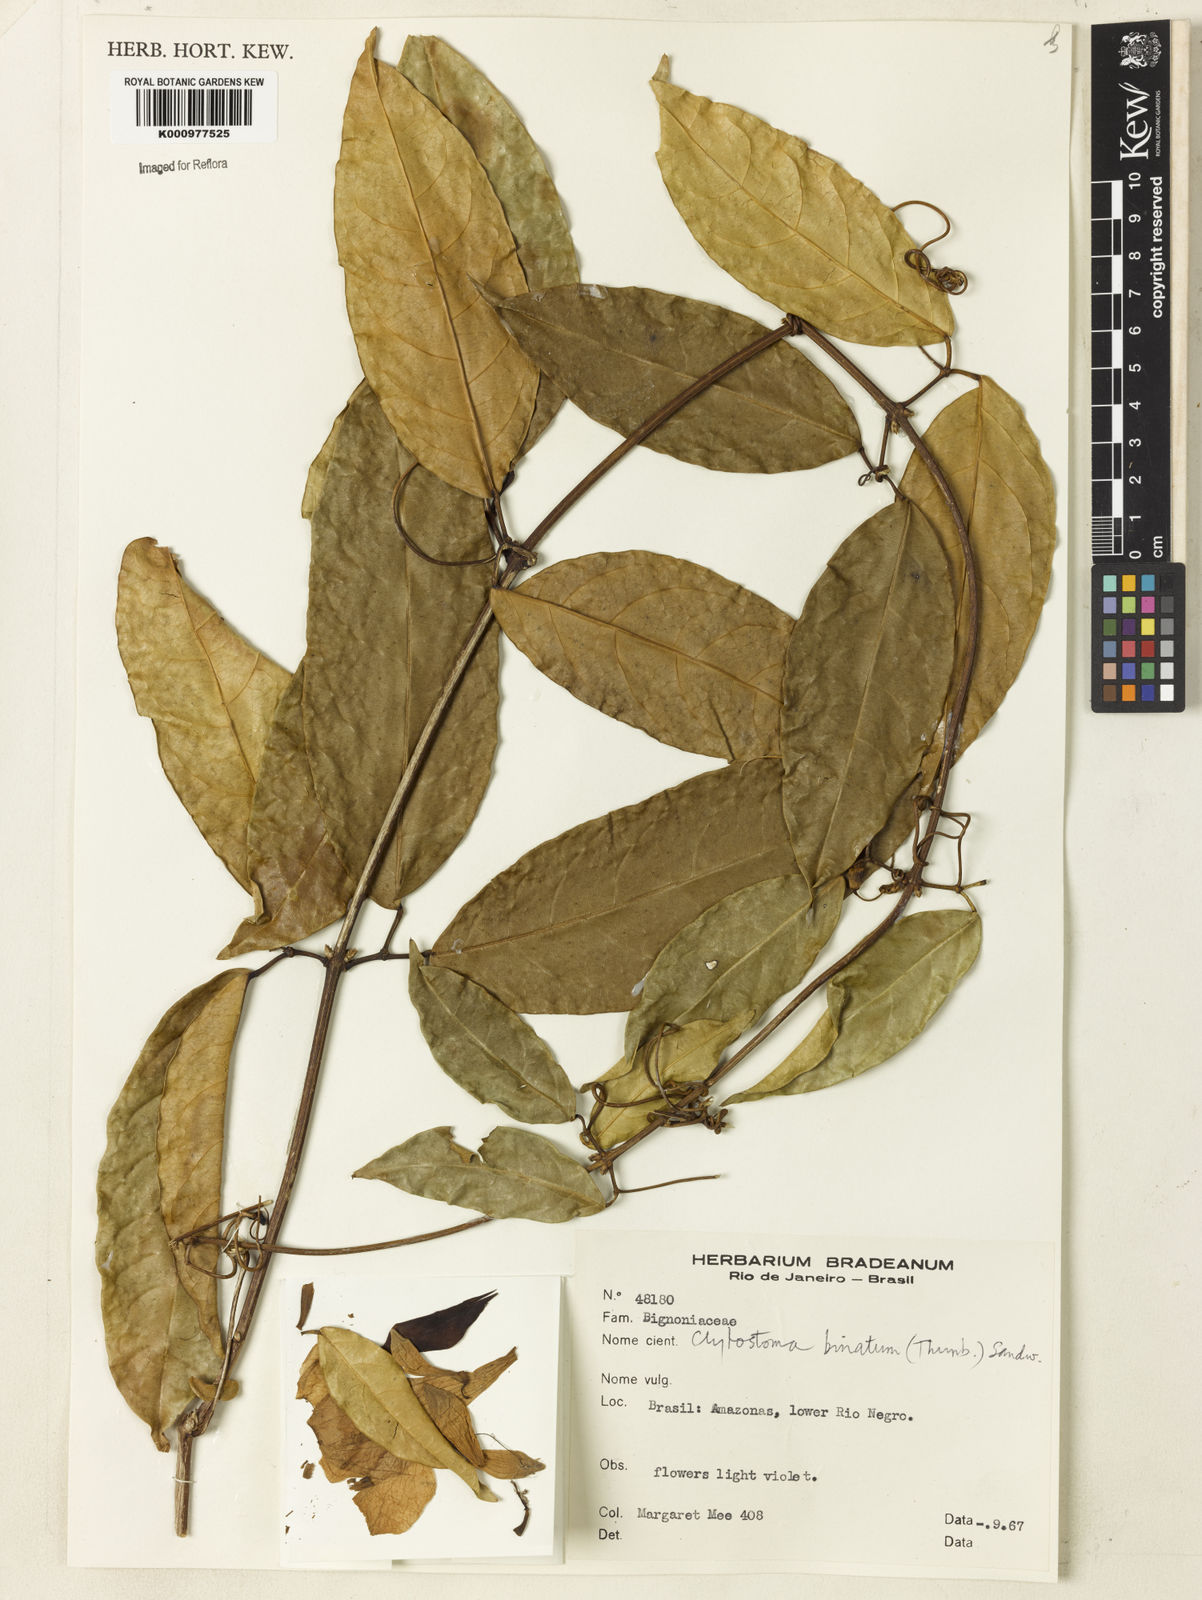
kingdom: Plantae
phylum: Tracheophyta
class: Magnoliopsida
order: Lamiales
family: Bignoniaceae
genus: Bignonia
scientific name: Bignonia binata
